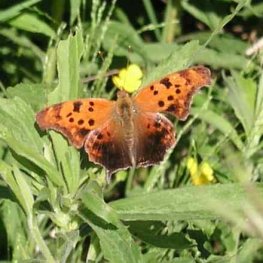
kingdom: Animalia
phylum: Arthropoda
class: Insecta
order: Lepidoptera
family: Nymphalidae
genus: Polygonia
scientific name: Polygonia interrogationis
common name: Question Mark
